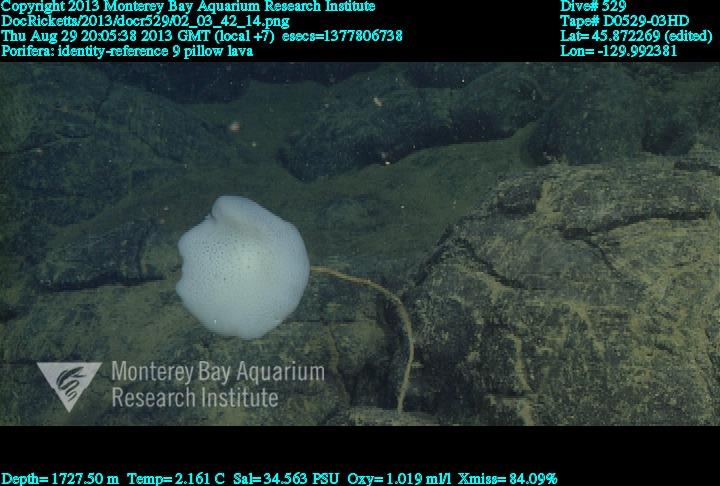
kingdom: Animalia
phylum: Porifera
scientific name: Porifera
